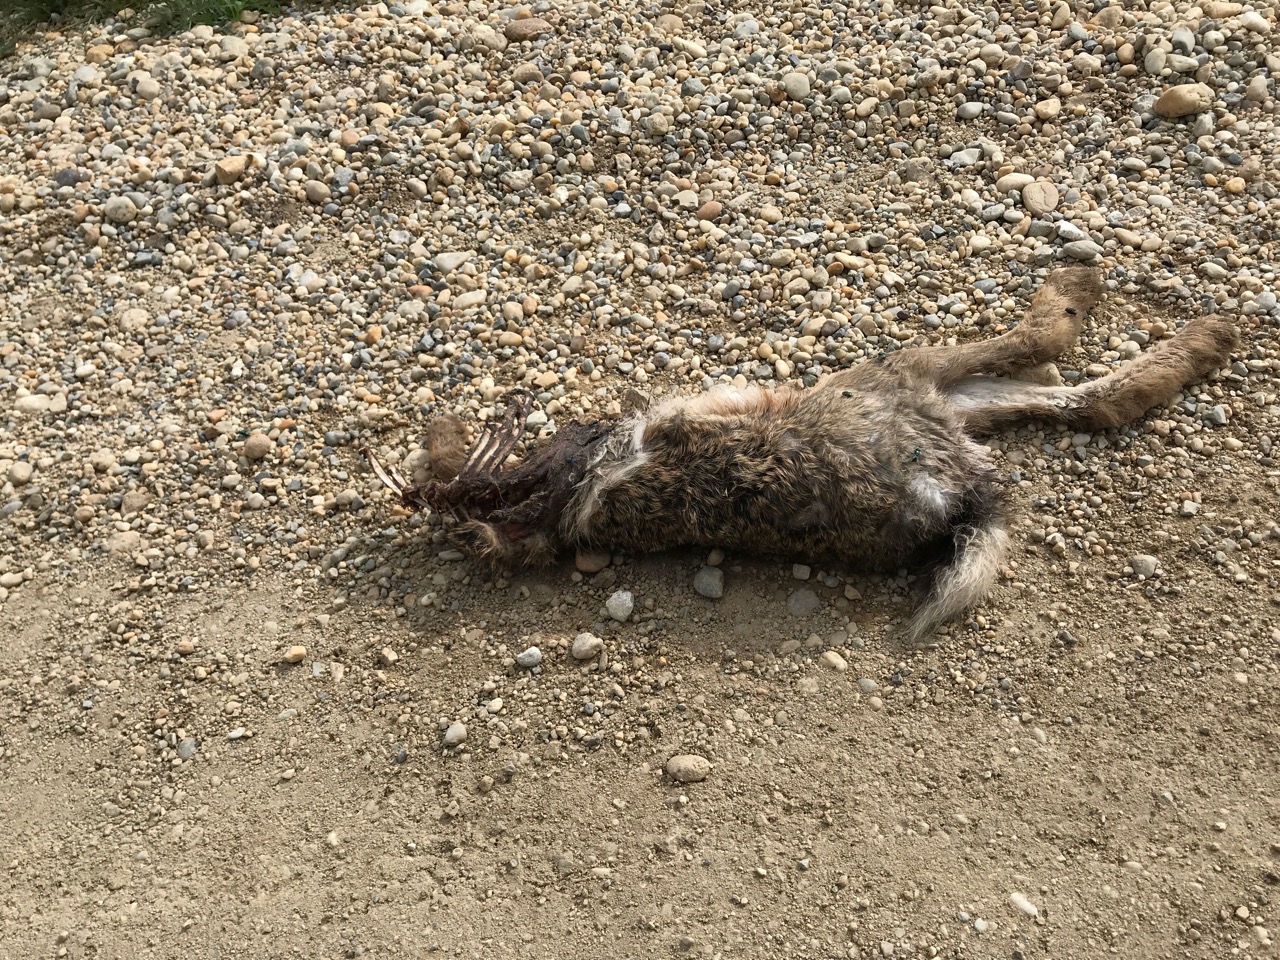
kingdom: Animalia
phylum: Chordata
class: Mammalia
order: Lagomorpha
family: Leporidae
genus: Lepus
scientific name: Lepus europaeus
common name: European hare
